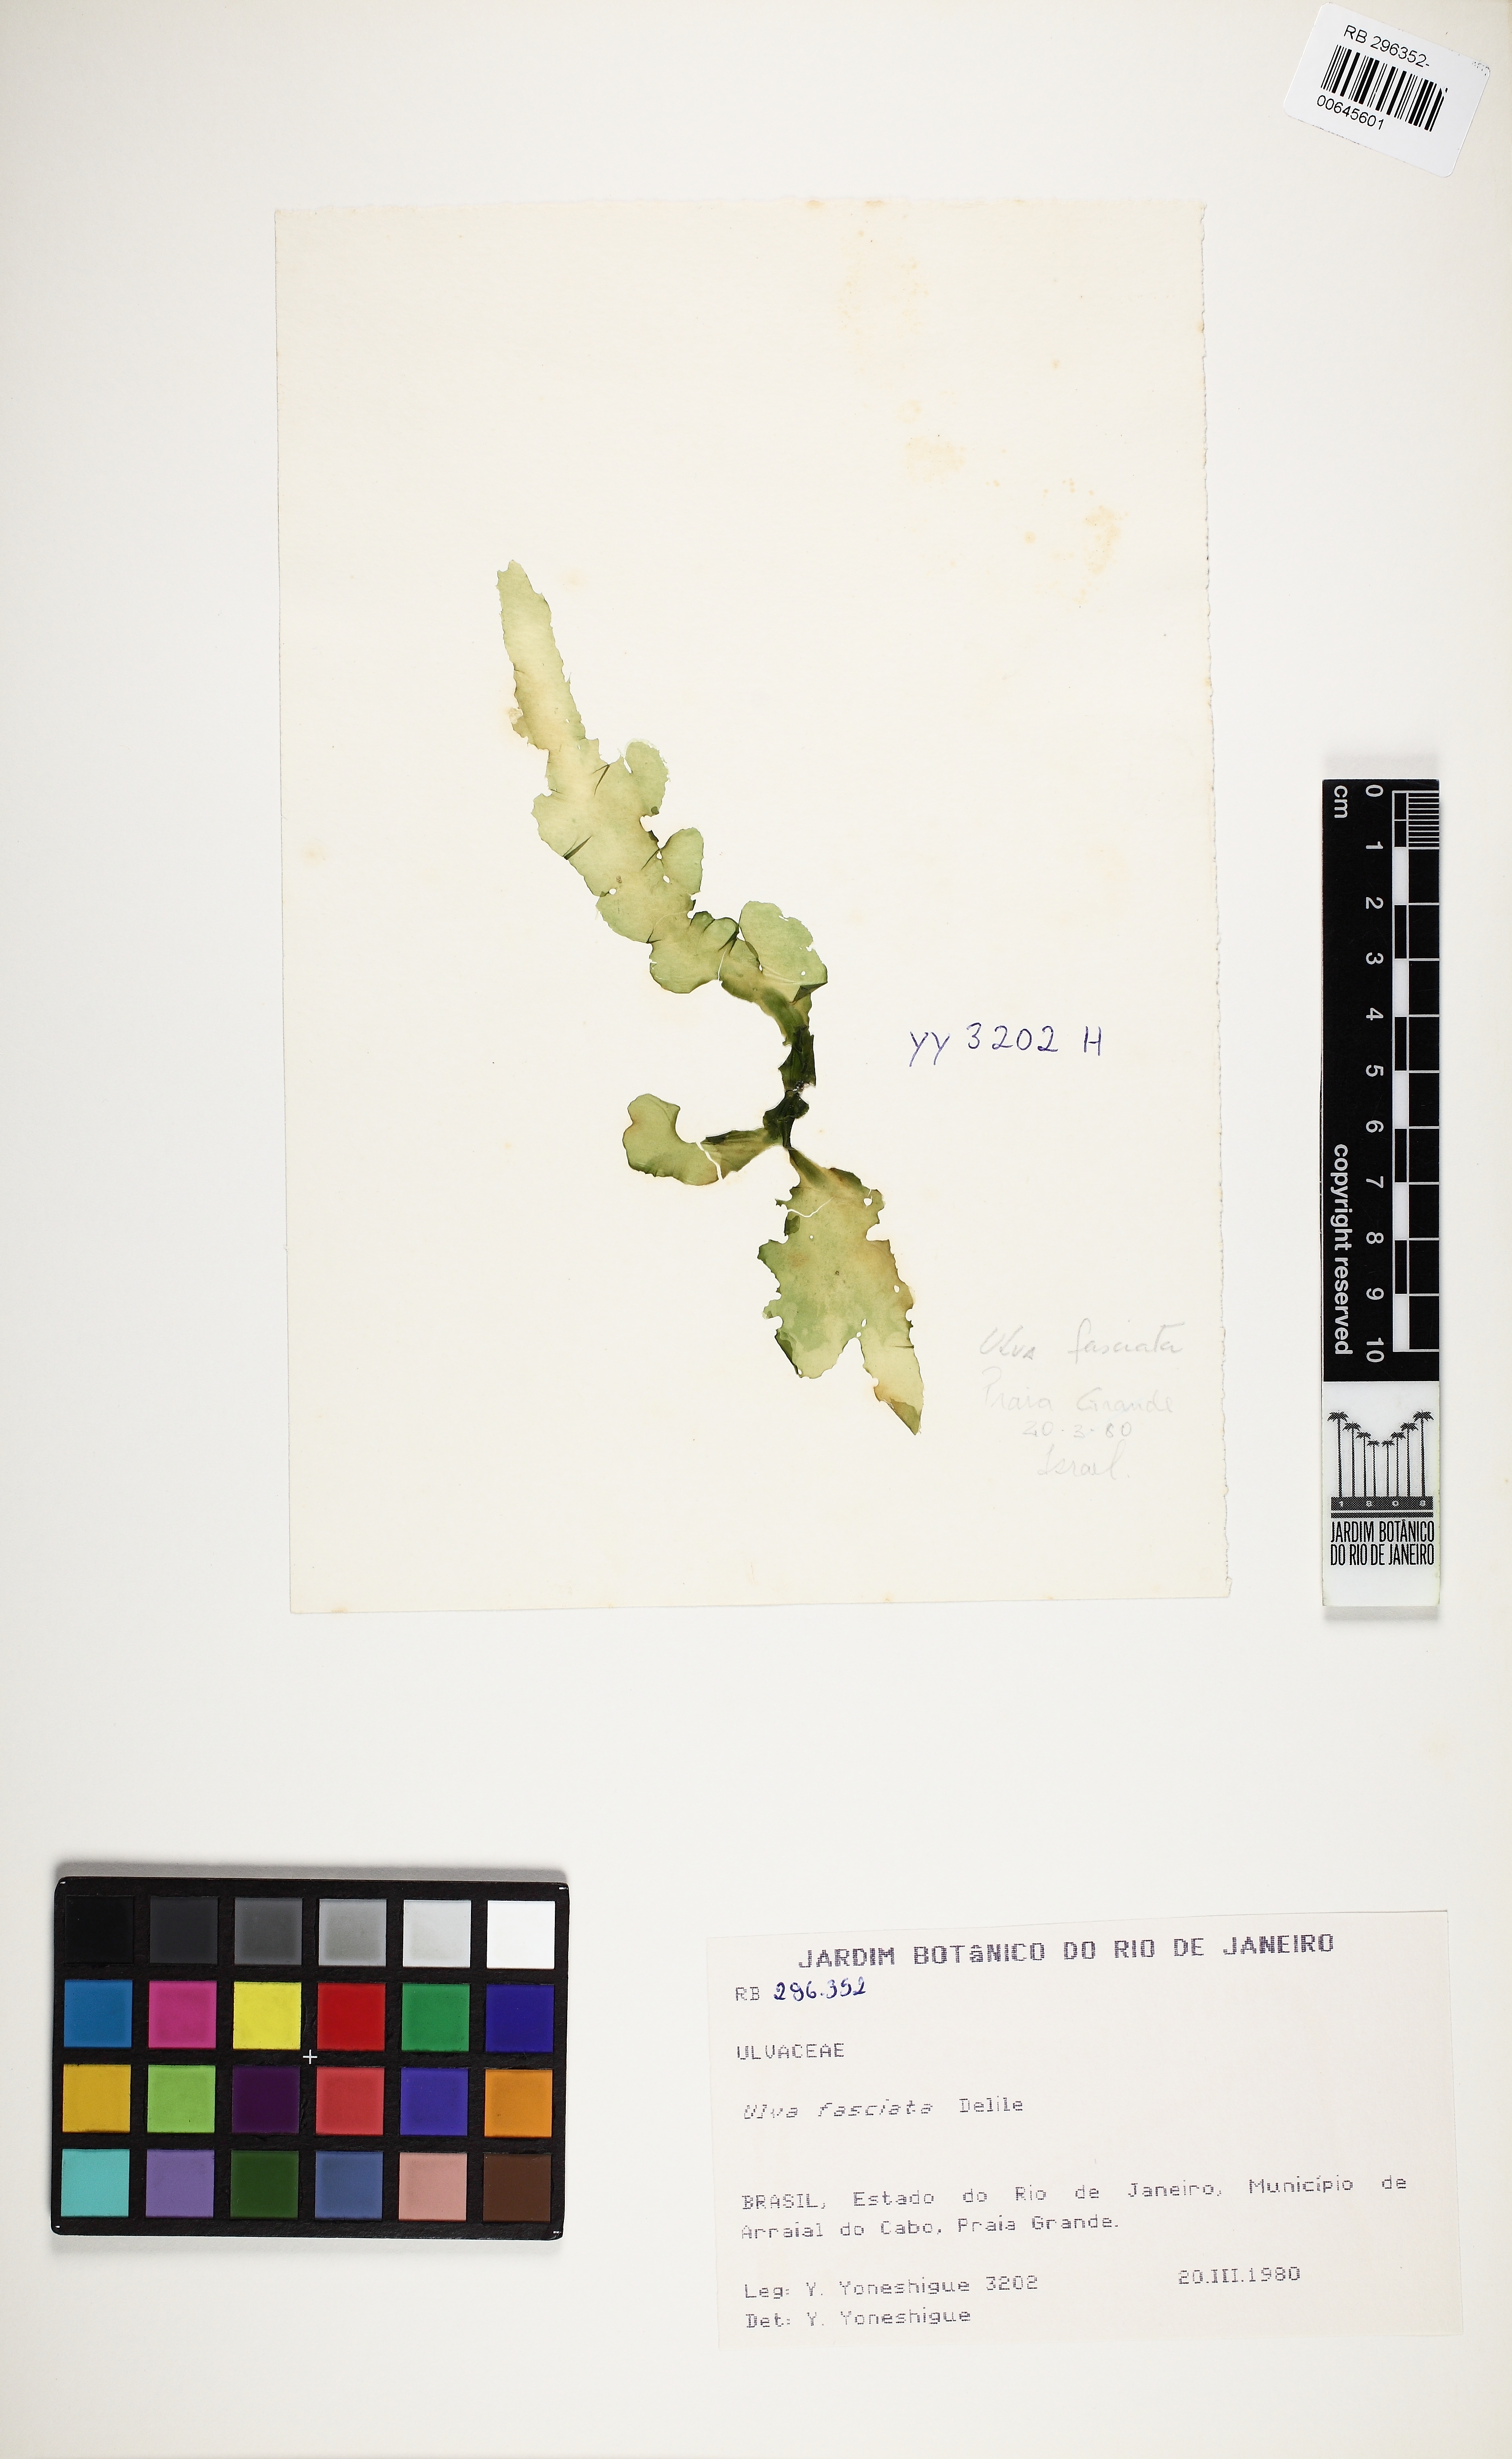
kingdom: Plantae
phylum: Chlorophyta
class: Ulvophyceae
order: Ulvales
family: Ulvaceae
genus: Ulva
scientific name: Ulva lactuca
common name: Sea lettuce
